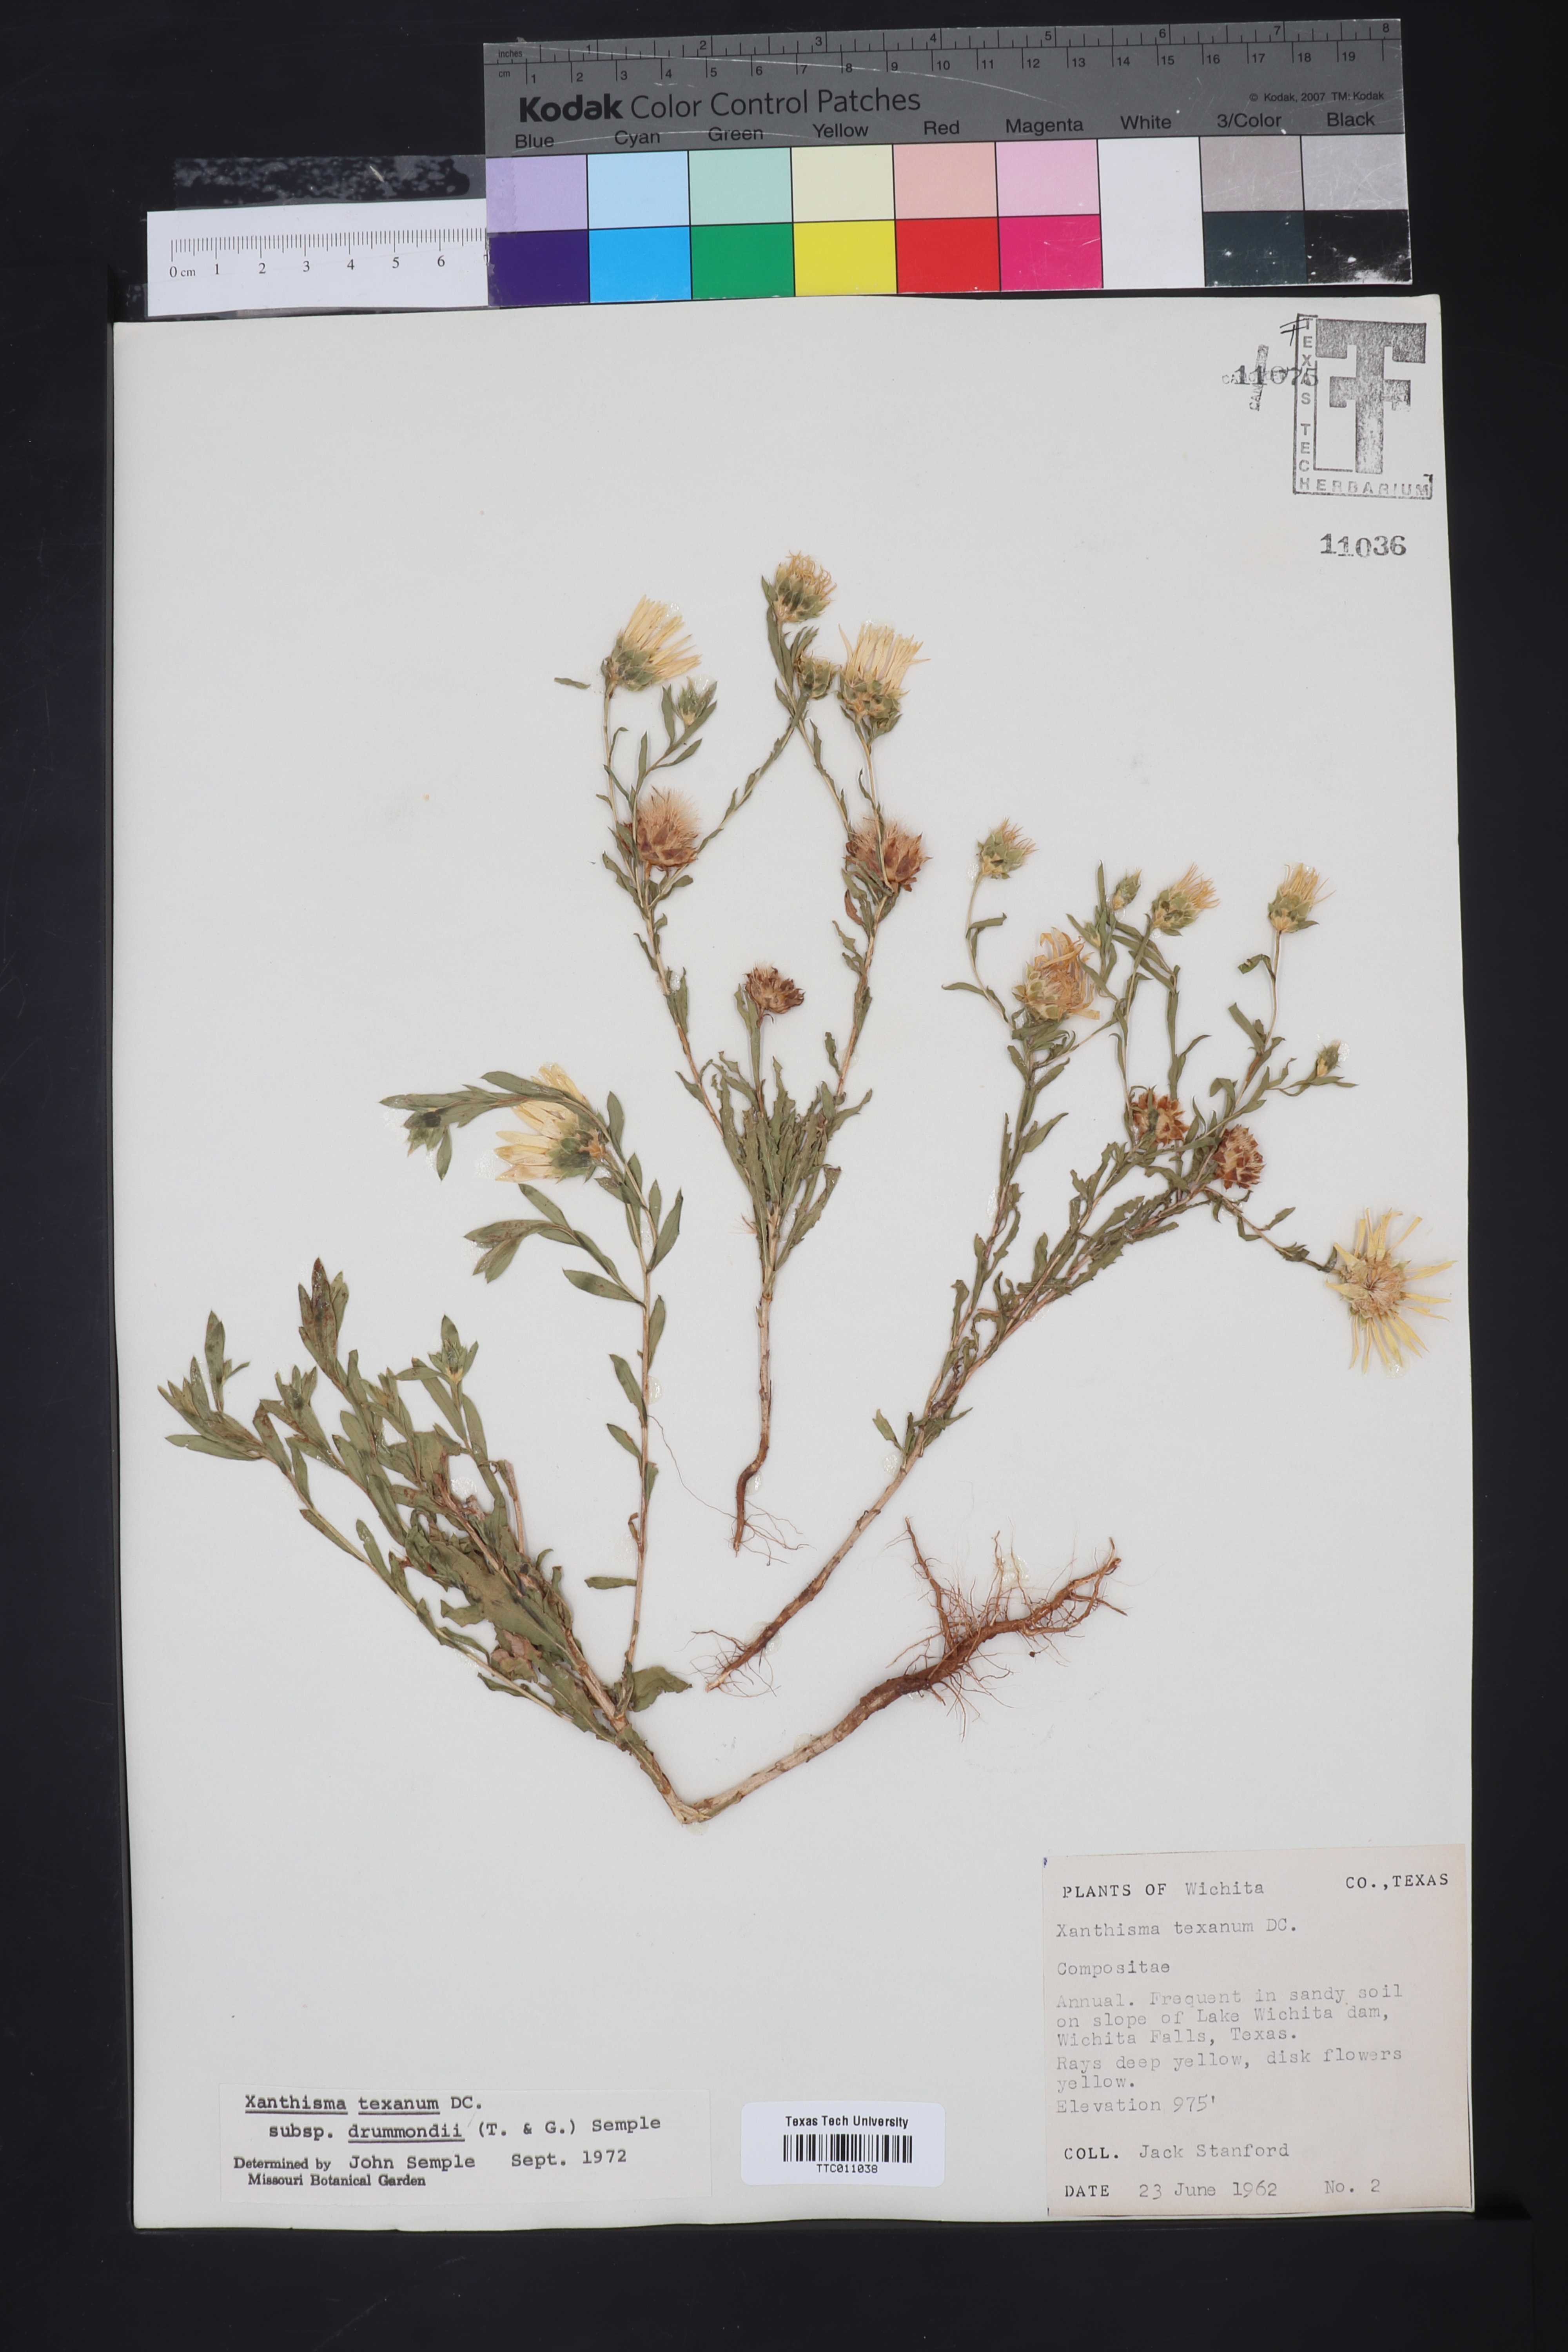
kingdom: Plantae
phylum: Tracheophyta
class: Magnoliopsida
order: Asterales
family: Asteraceae
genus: Xanthisma
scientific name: Xanthisma texanum
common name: Texas sleepy daisy
